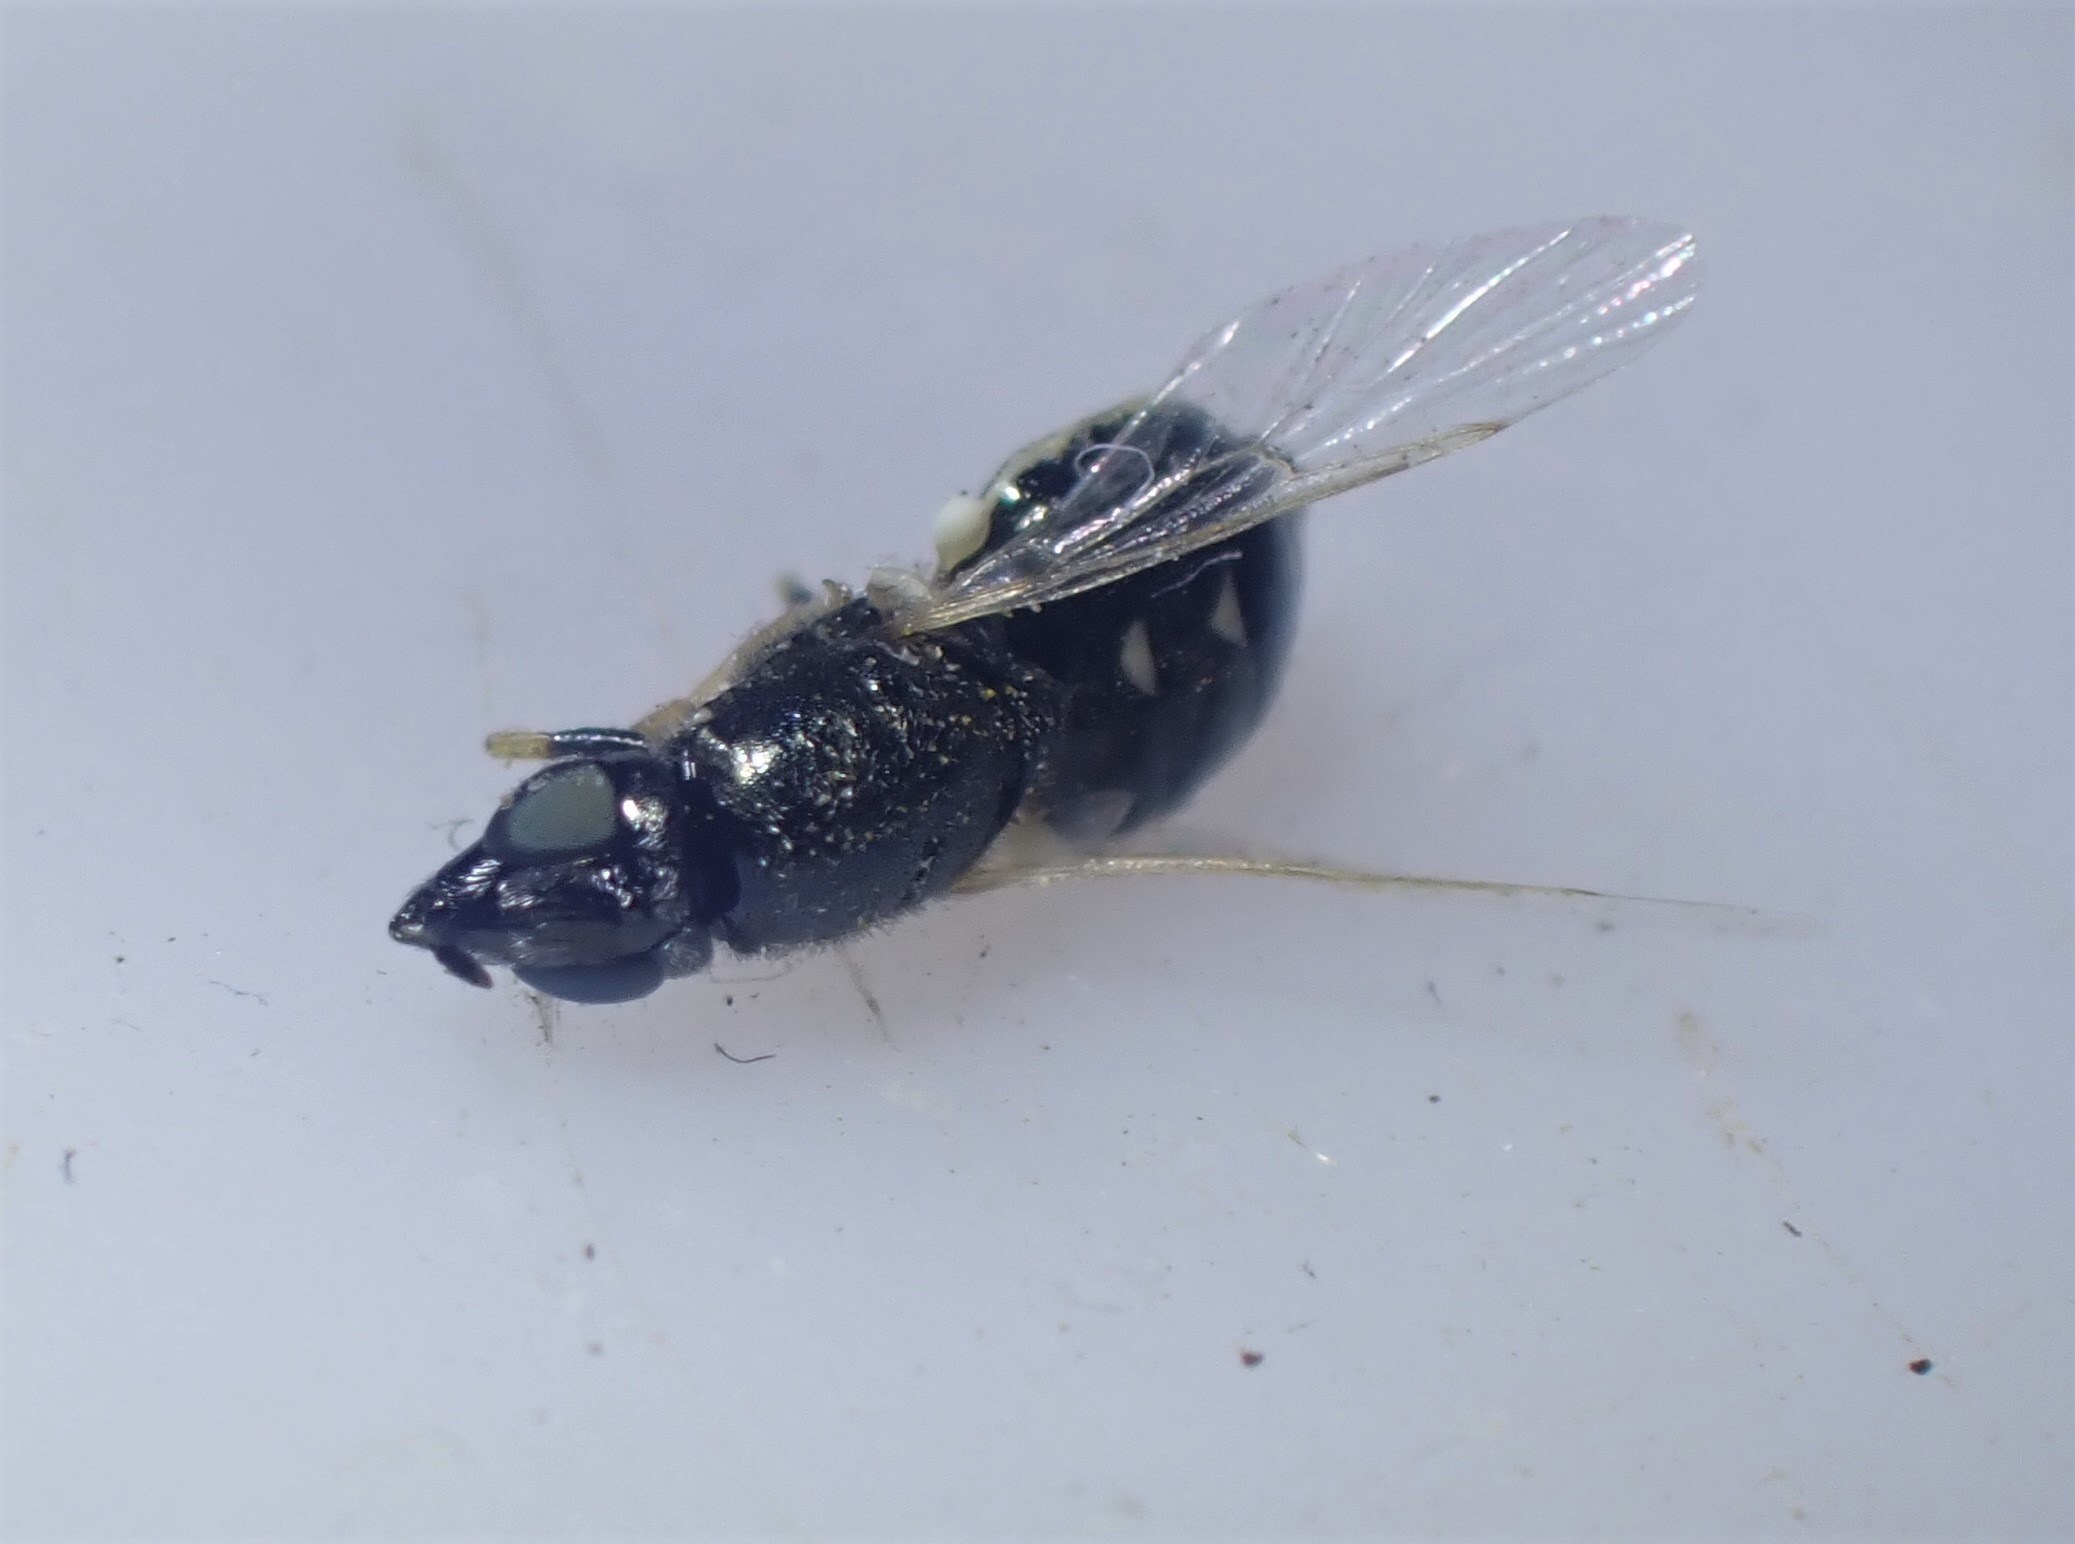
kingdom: Animalia
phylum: Arthropoda
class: Insecta
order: Diptera
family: Stratiomyidae
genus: Nemotelus
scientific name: Nemotelus pantherina
